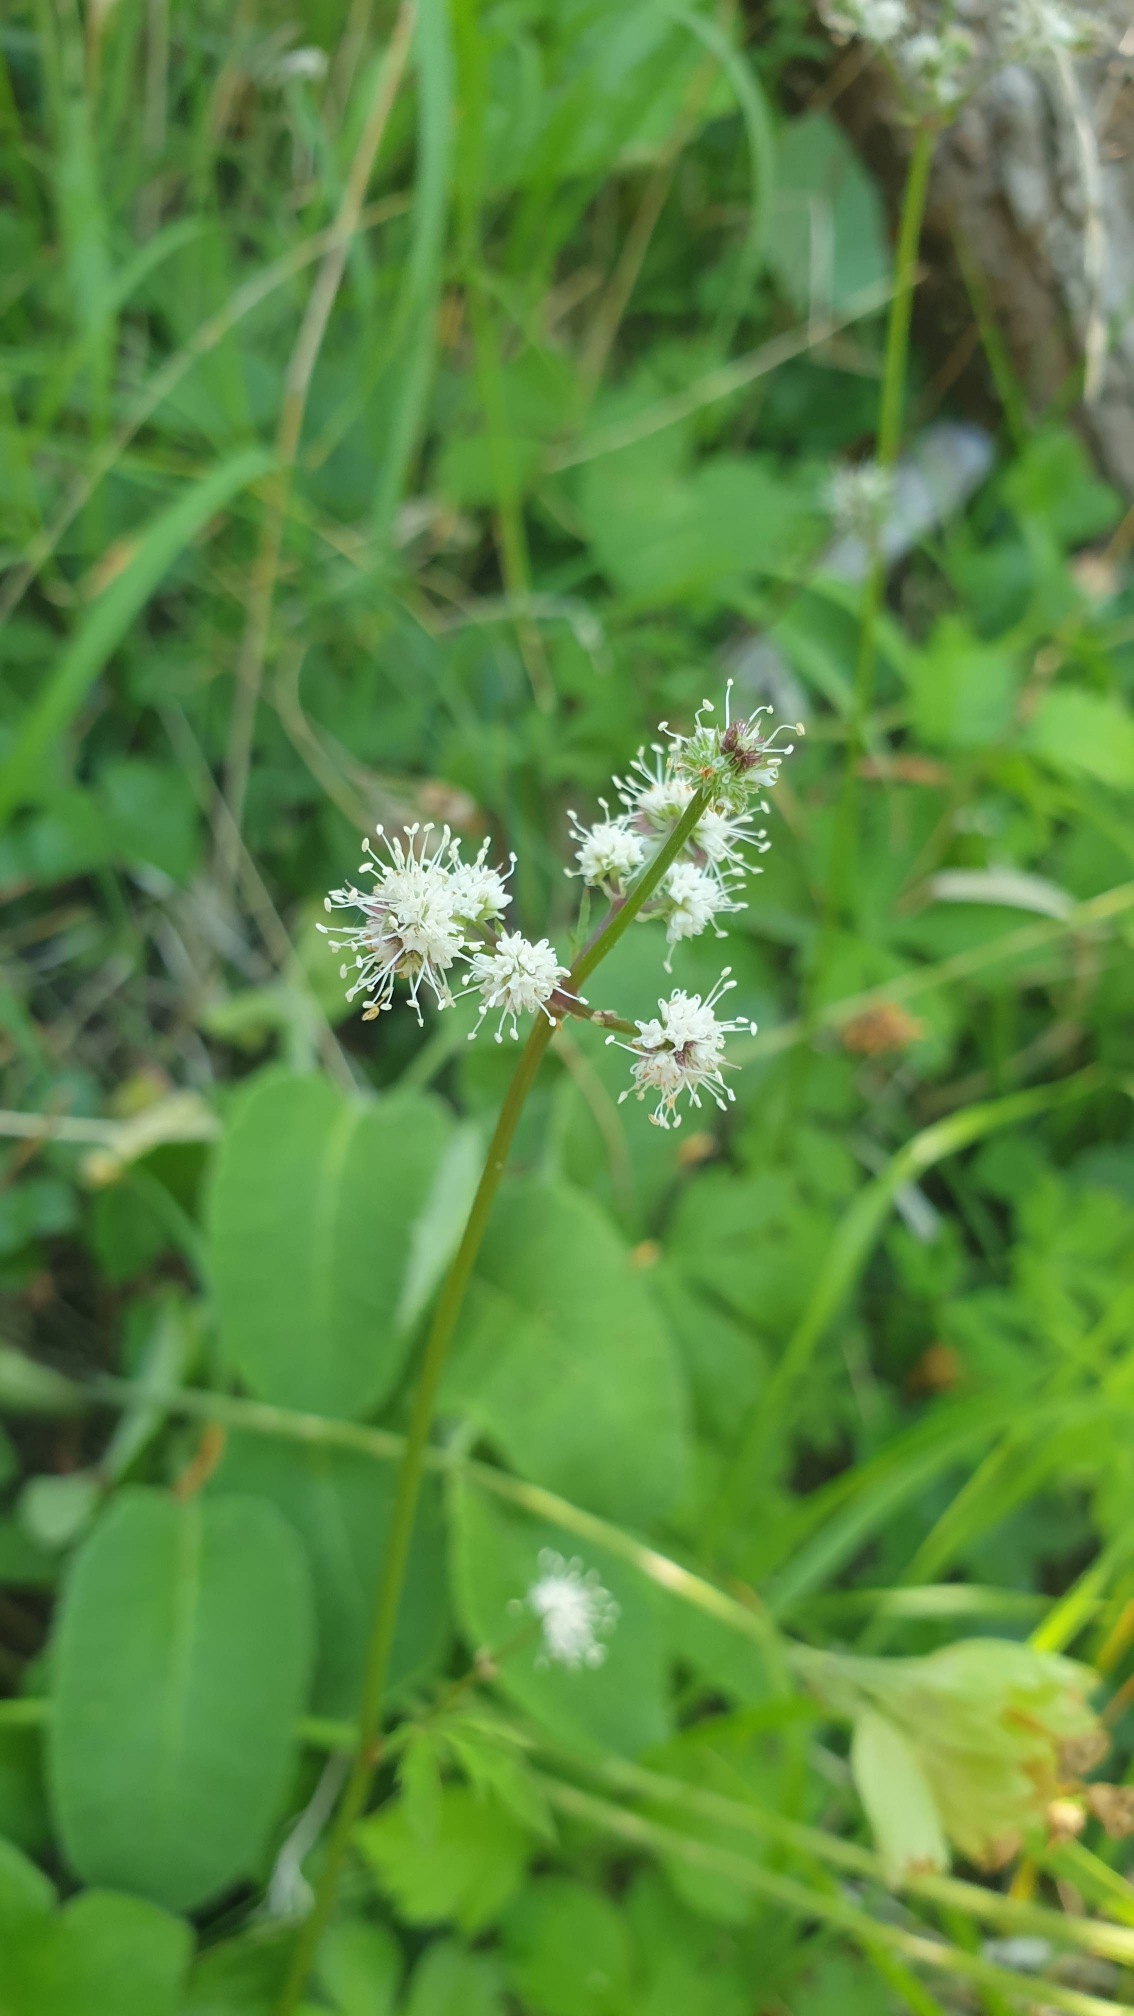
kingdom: Plantae
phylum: Tracheophyta
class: Magnoliopsida
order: Apiales
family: Apiaceae
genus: Sanicula
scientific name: Sanicula europaea
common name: Sanikel
